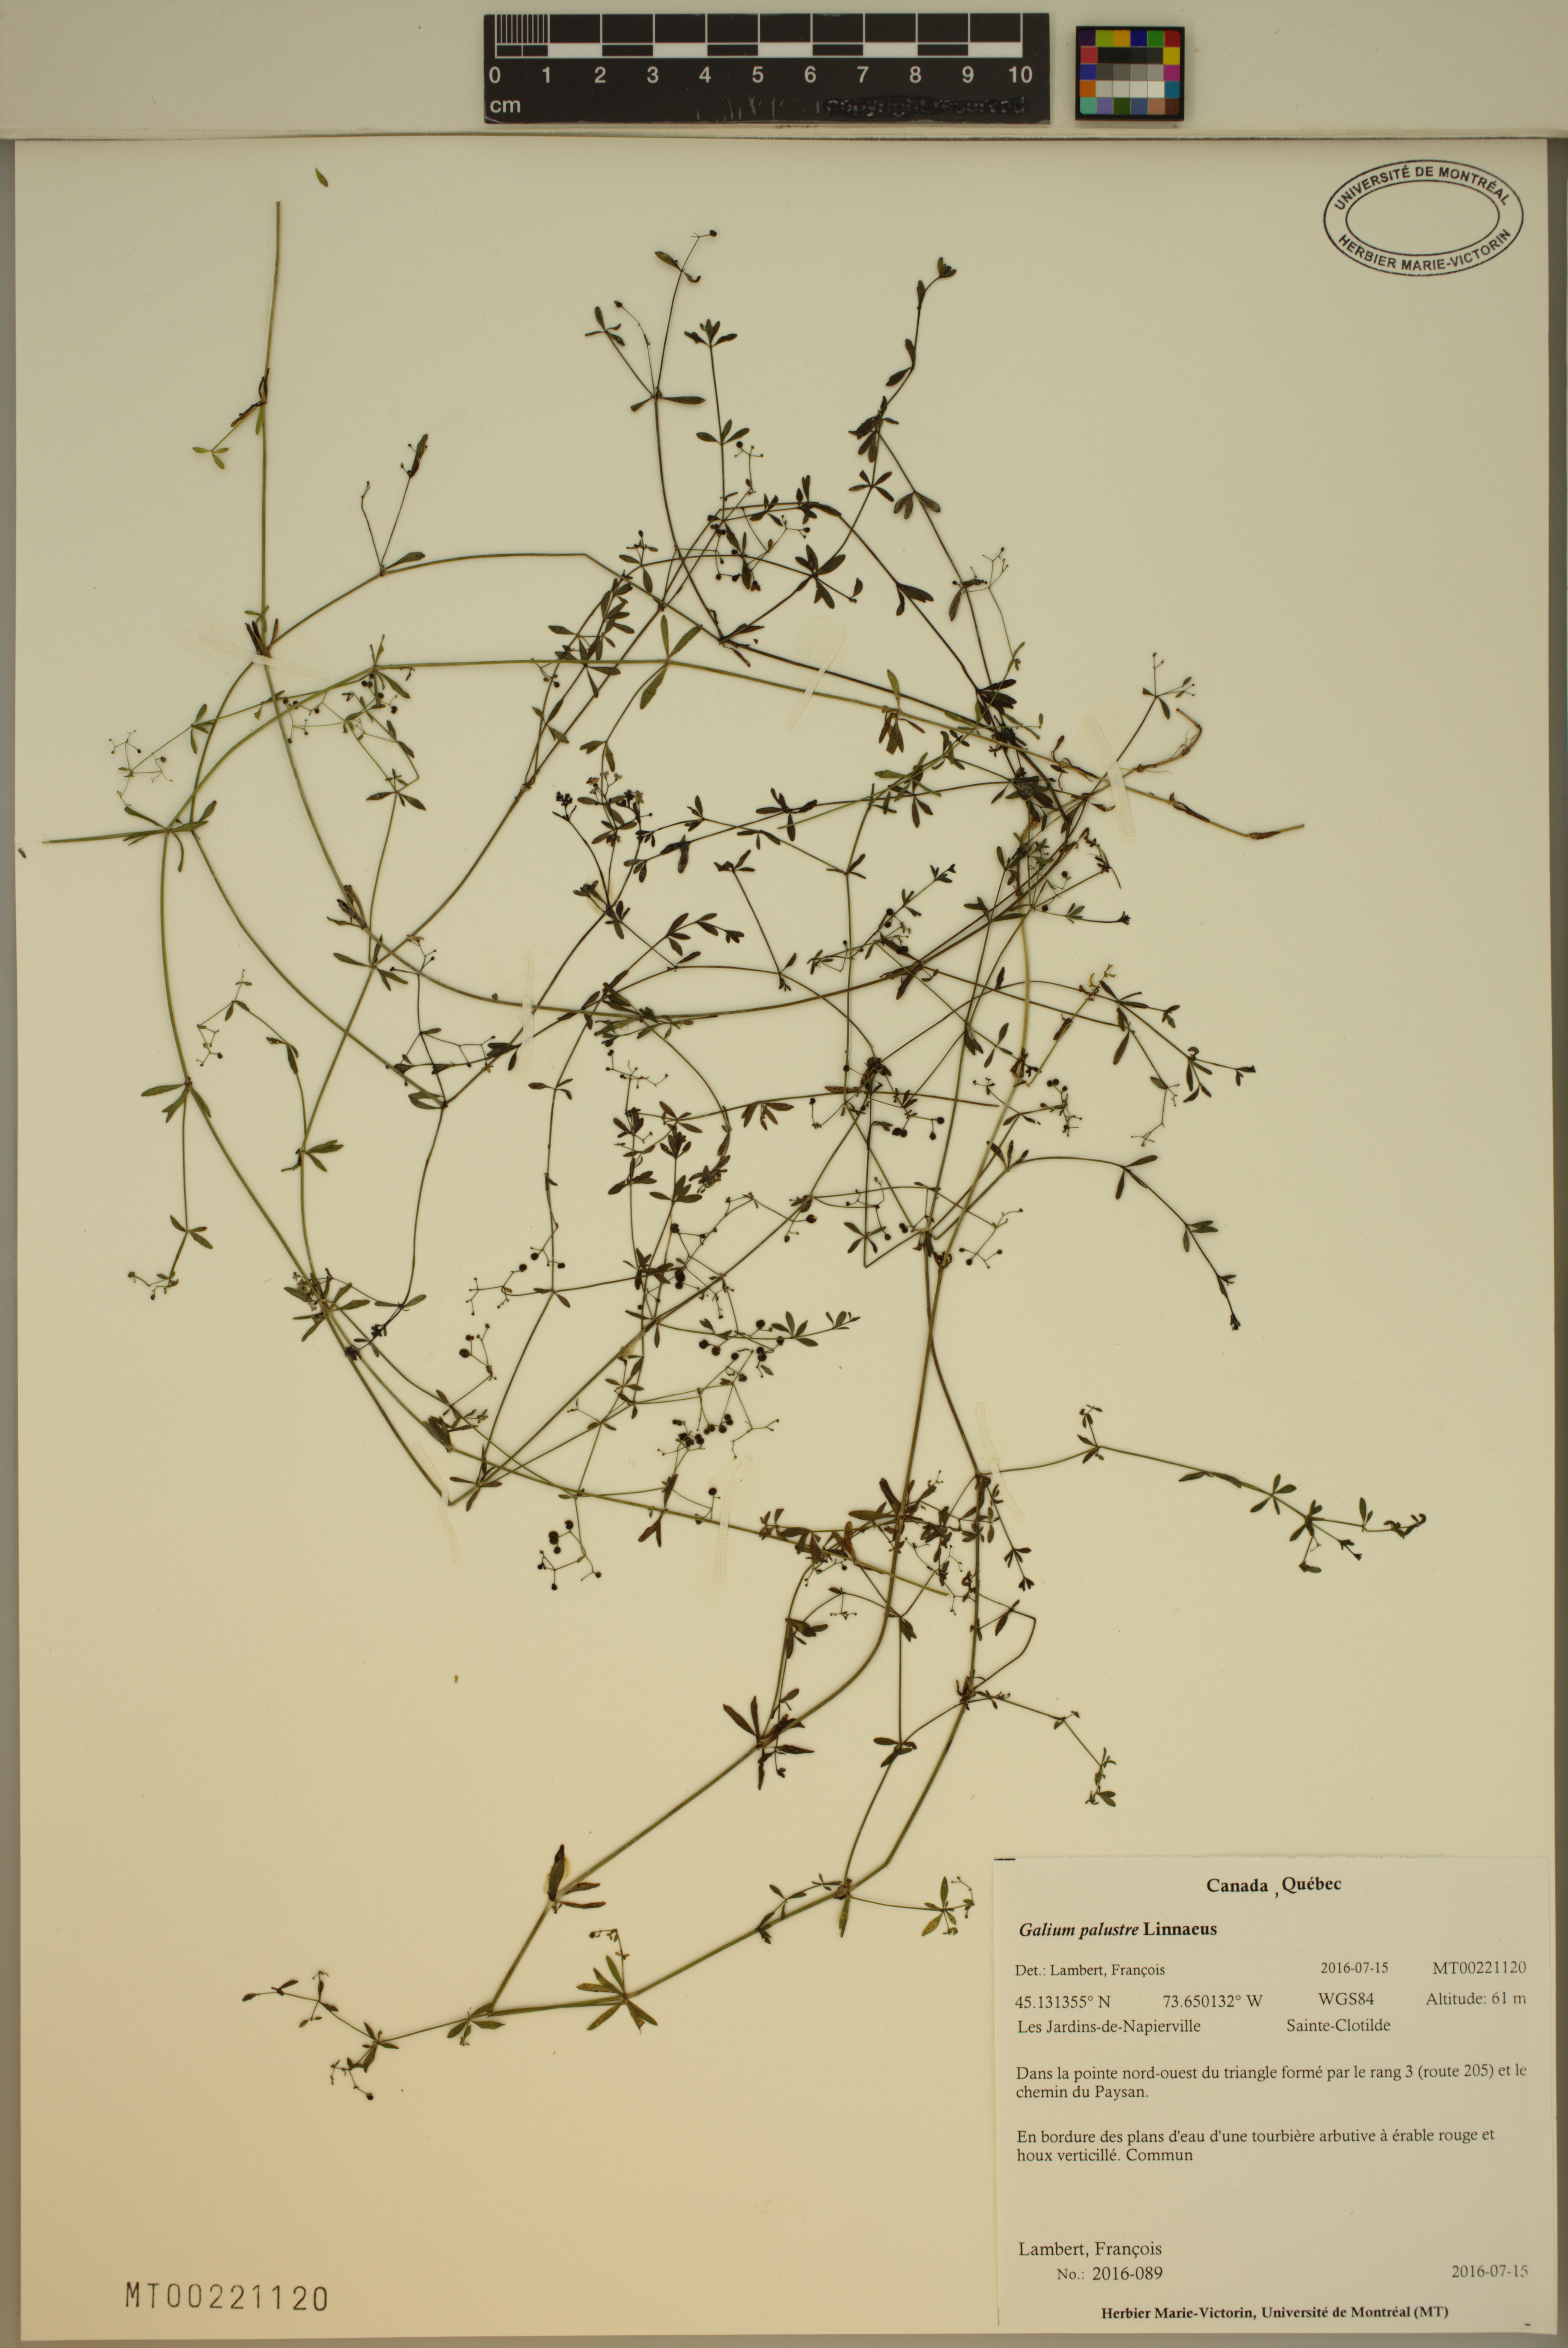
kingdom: Plantae
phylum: Tracheophyta
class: Magnoliopsida
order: Gentianales
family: Rubiaceae
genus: Galium
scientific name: Galium palustre
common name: Common marsh-bedstraw
